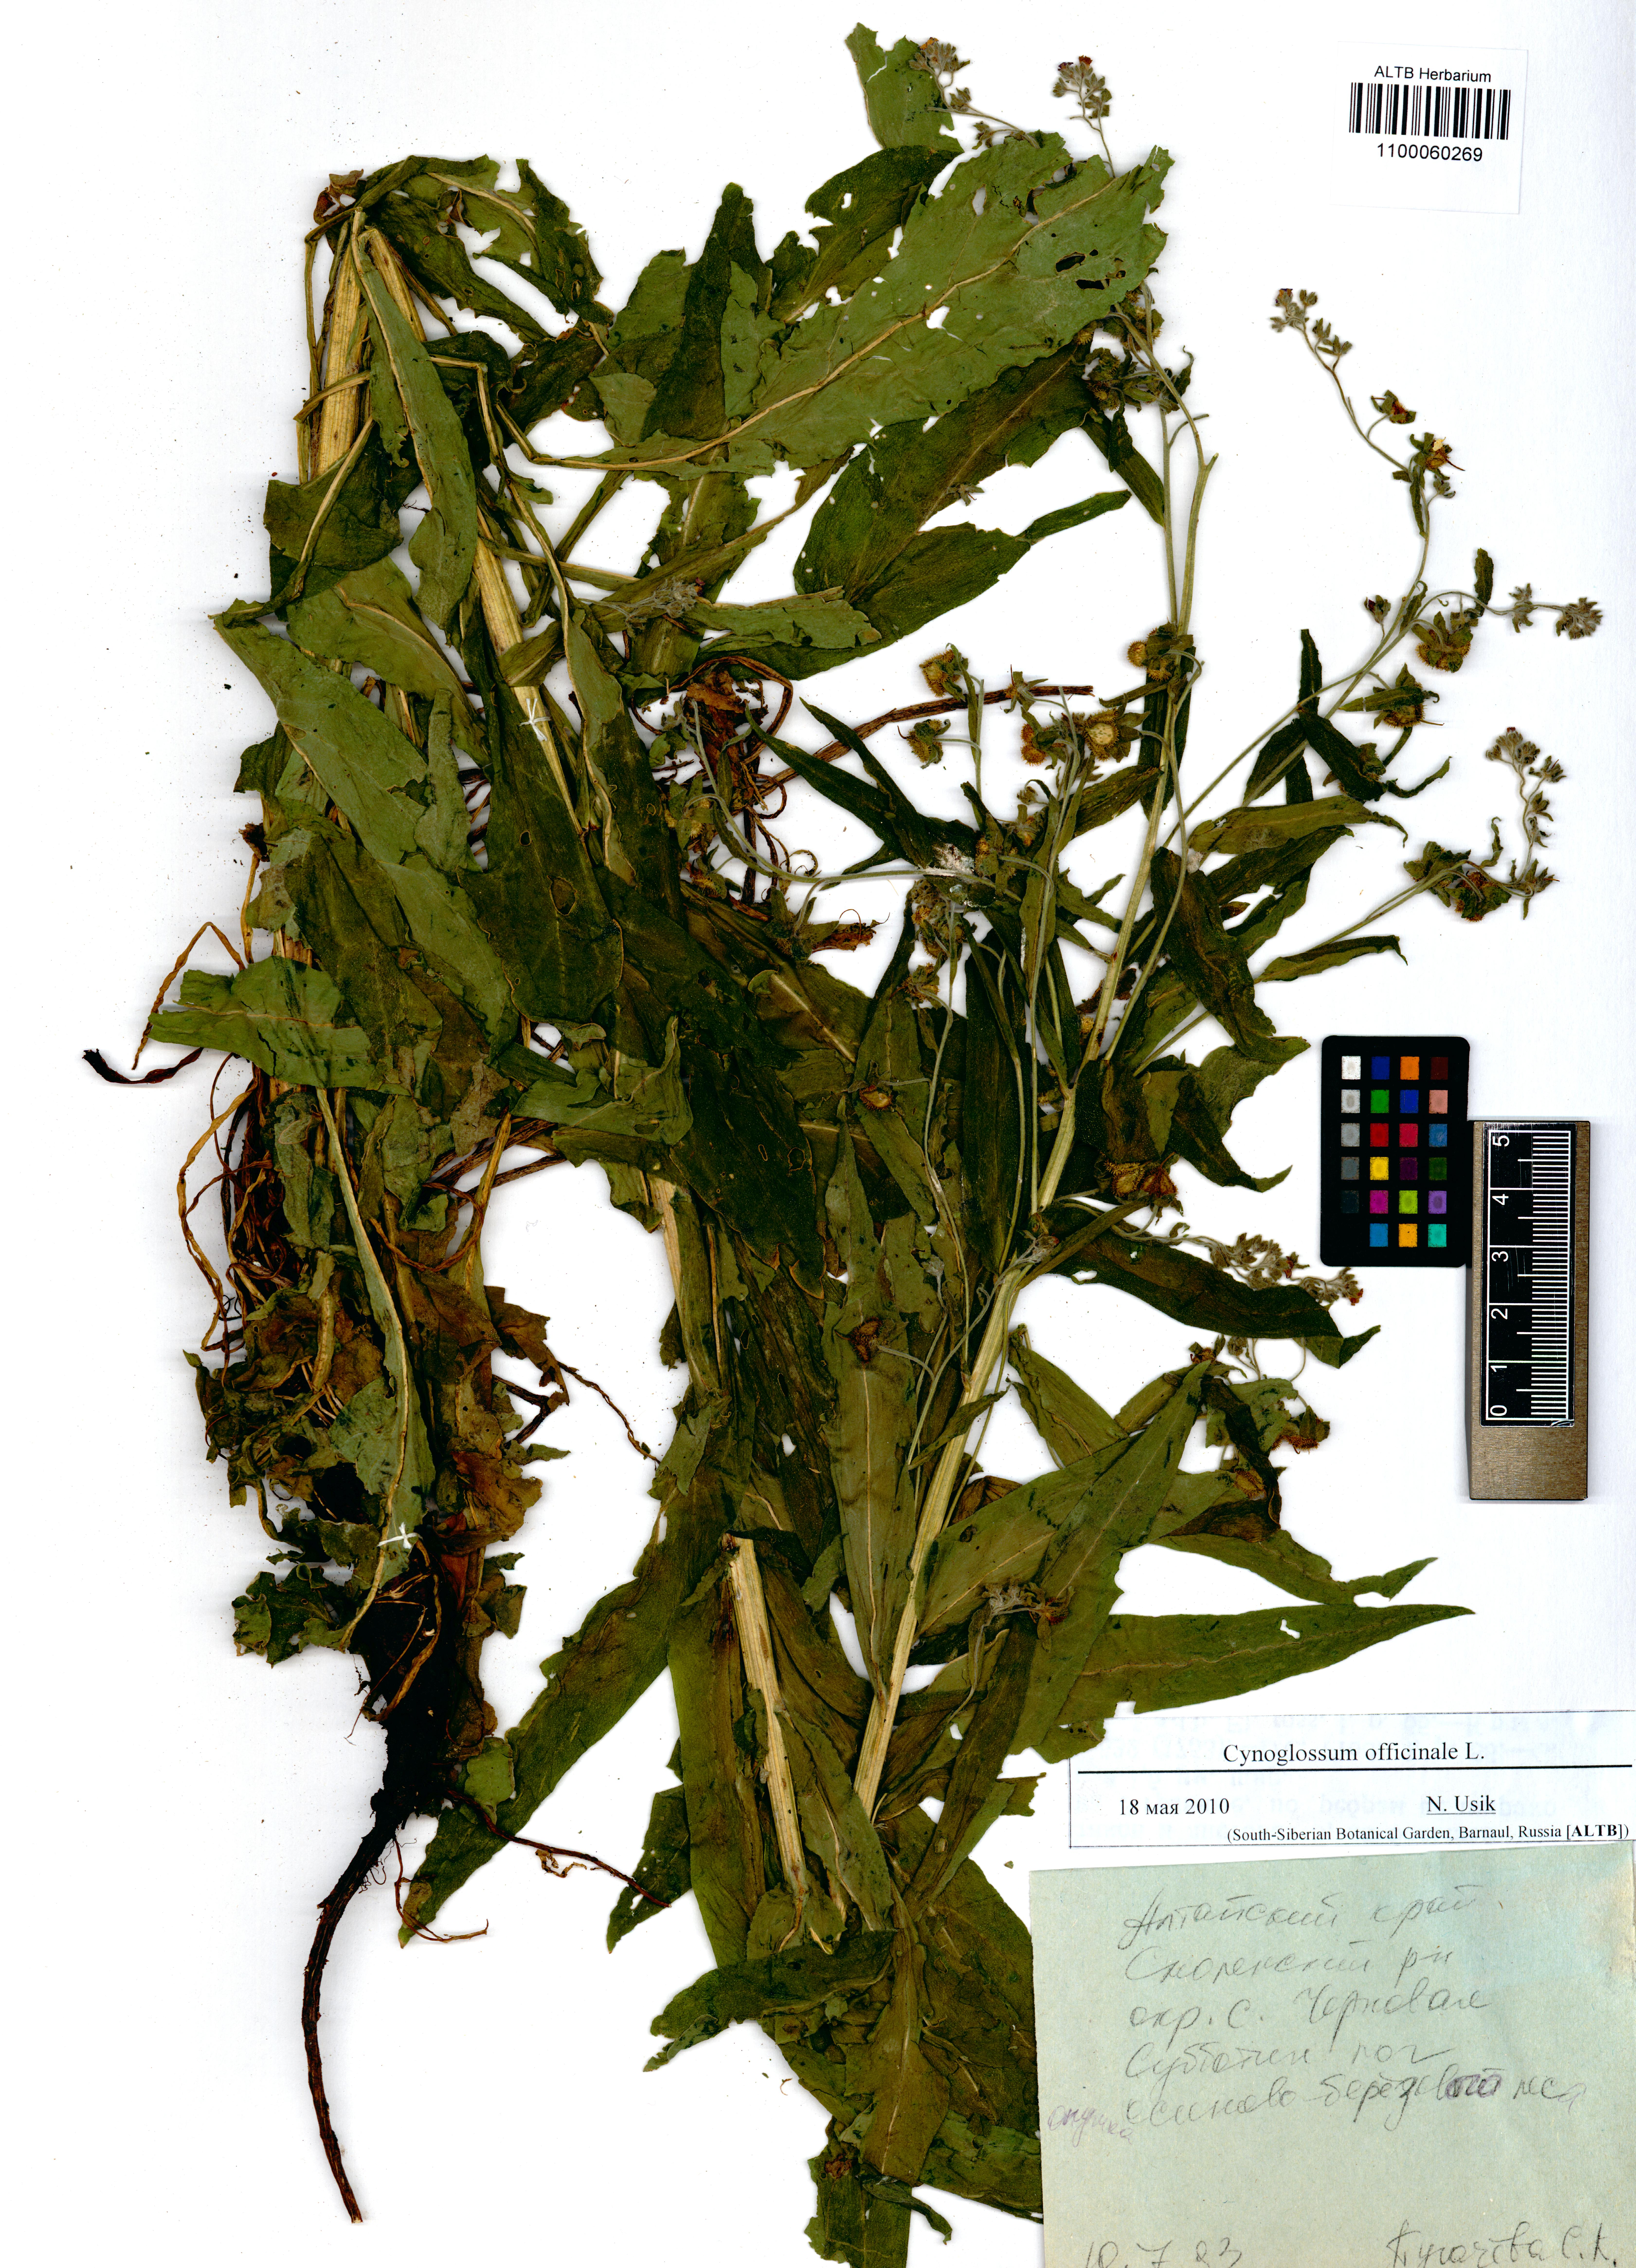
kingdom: Plantae
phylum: Tracheophyta
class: Magnoliopsida
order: Boraginales
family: Boraginaceae
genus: Cynoglossum
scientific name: Cynoglossum officinale
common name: Hound's-tongue
